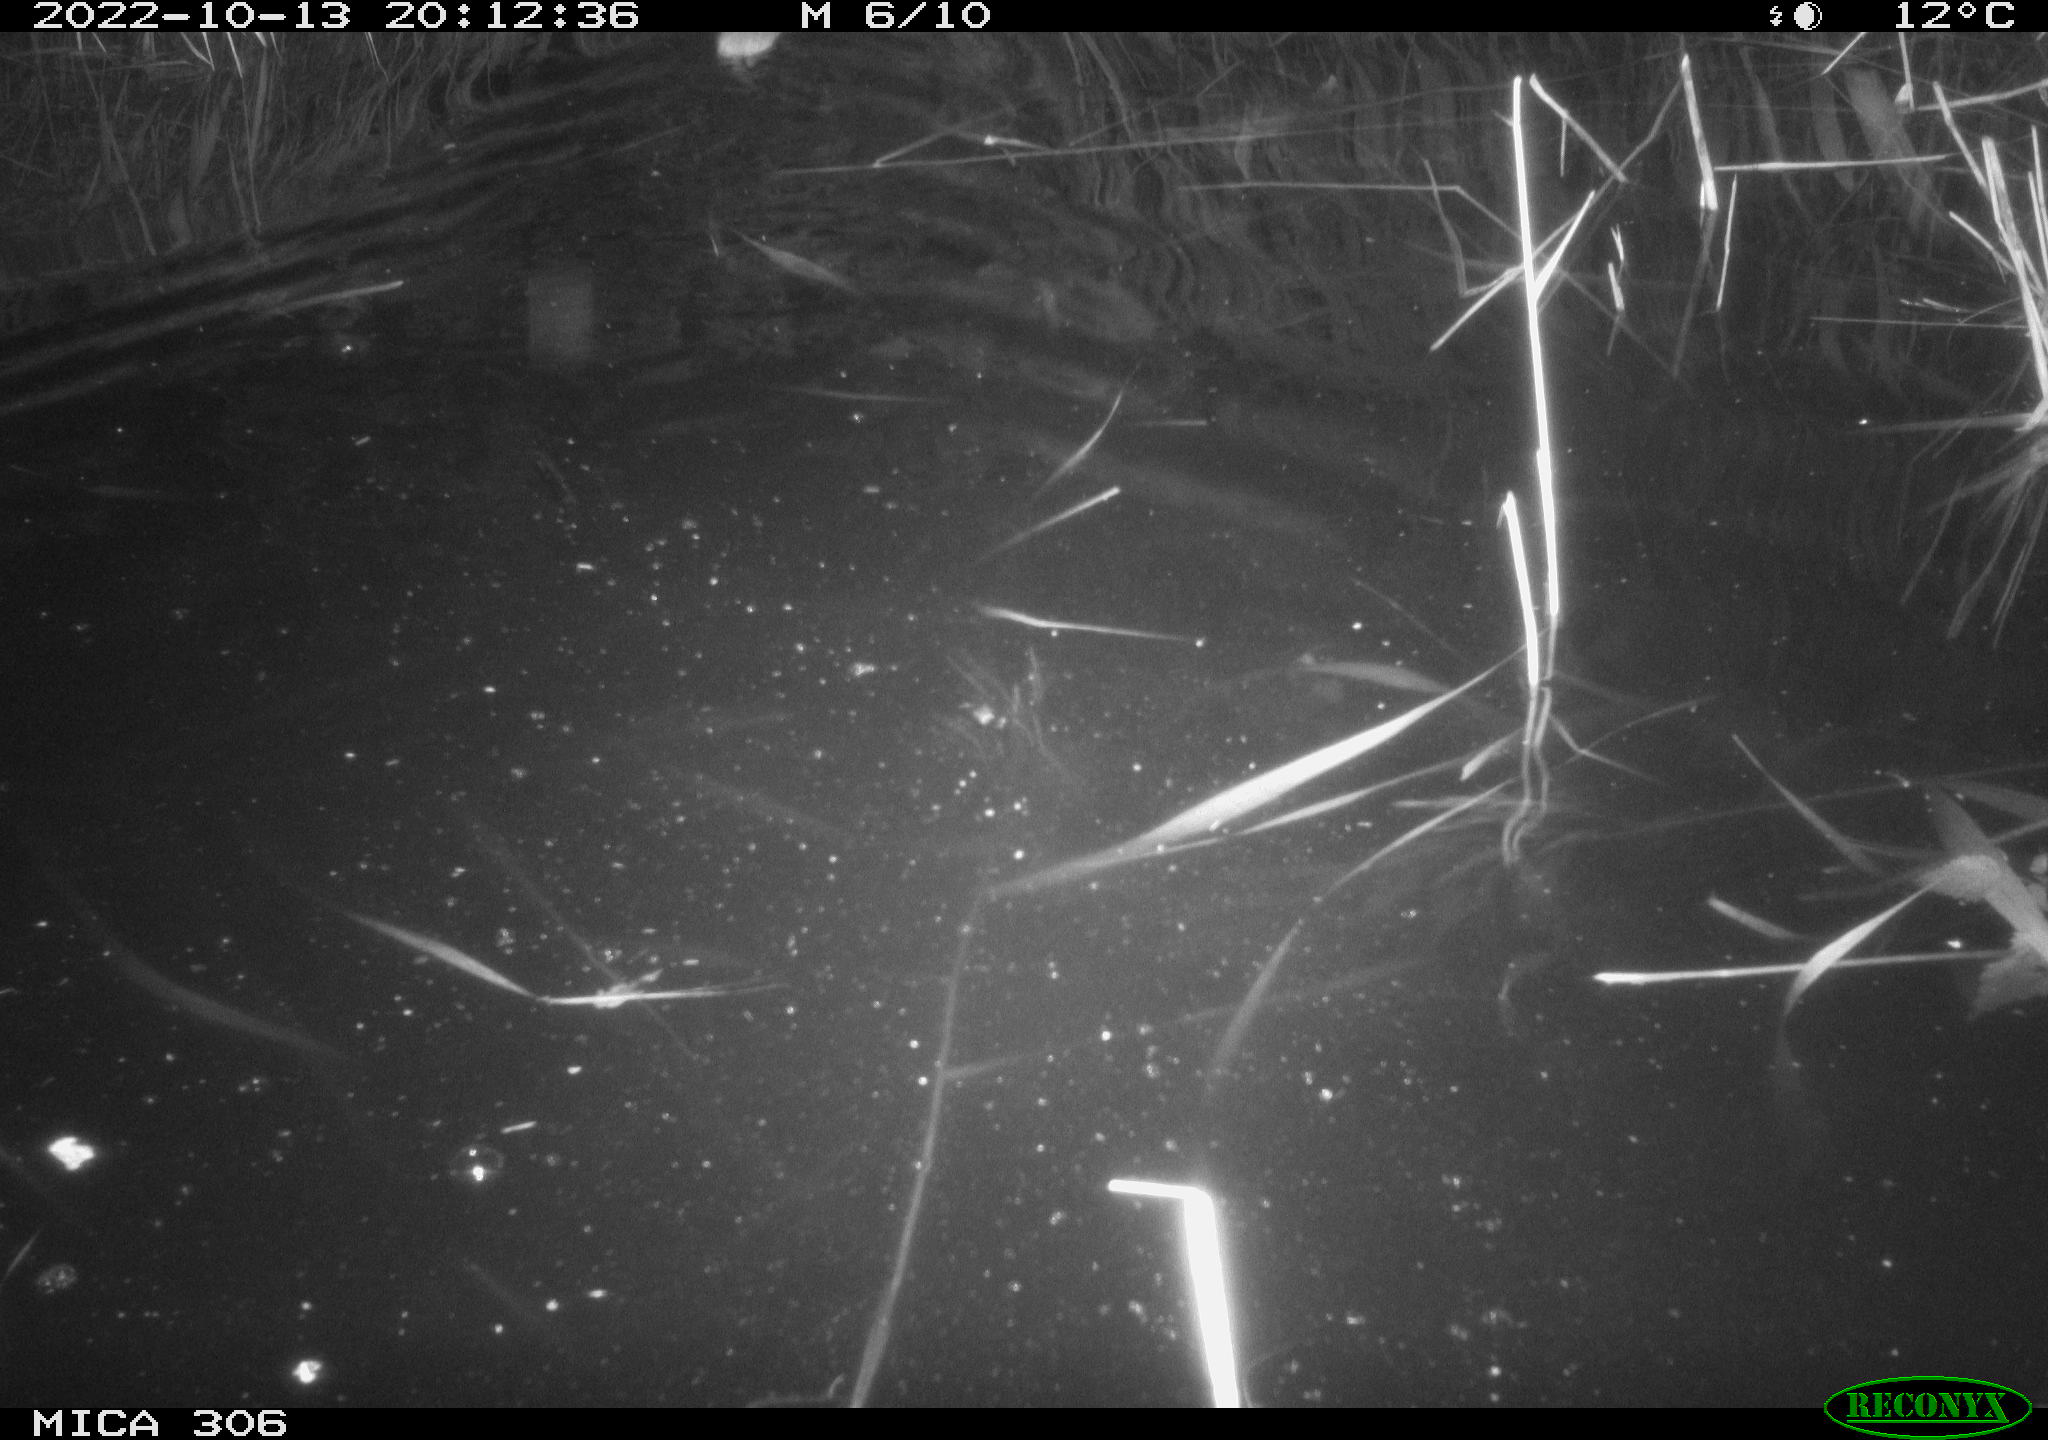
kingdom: Animalia
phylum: Chordata
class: Mammalia
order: Rodentia
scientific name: Rodentia
